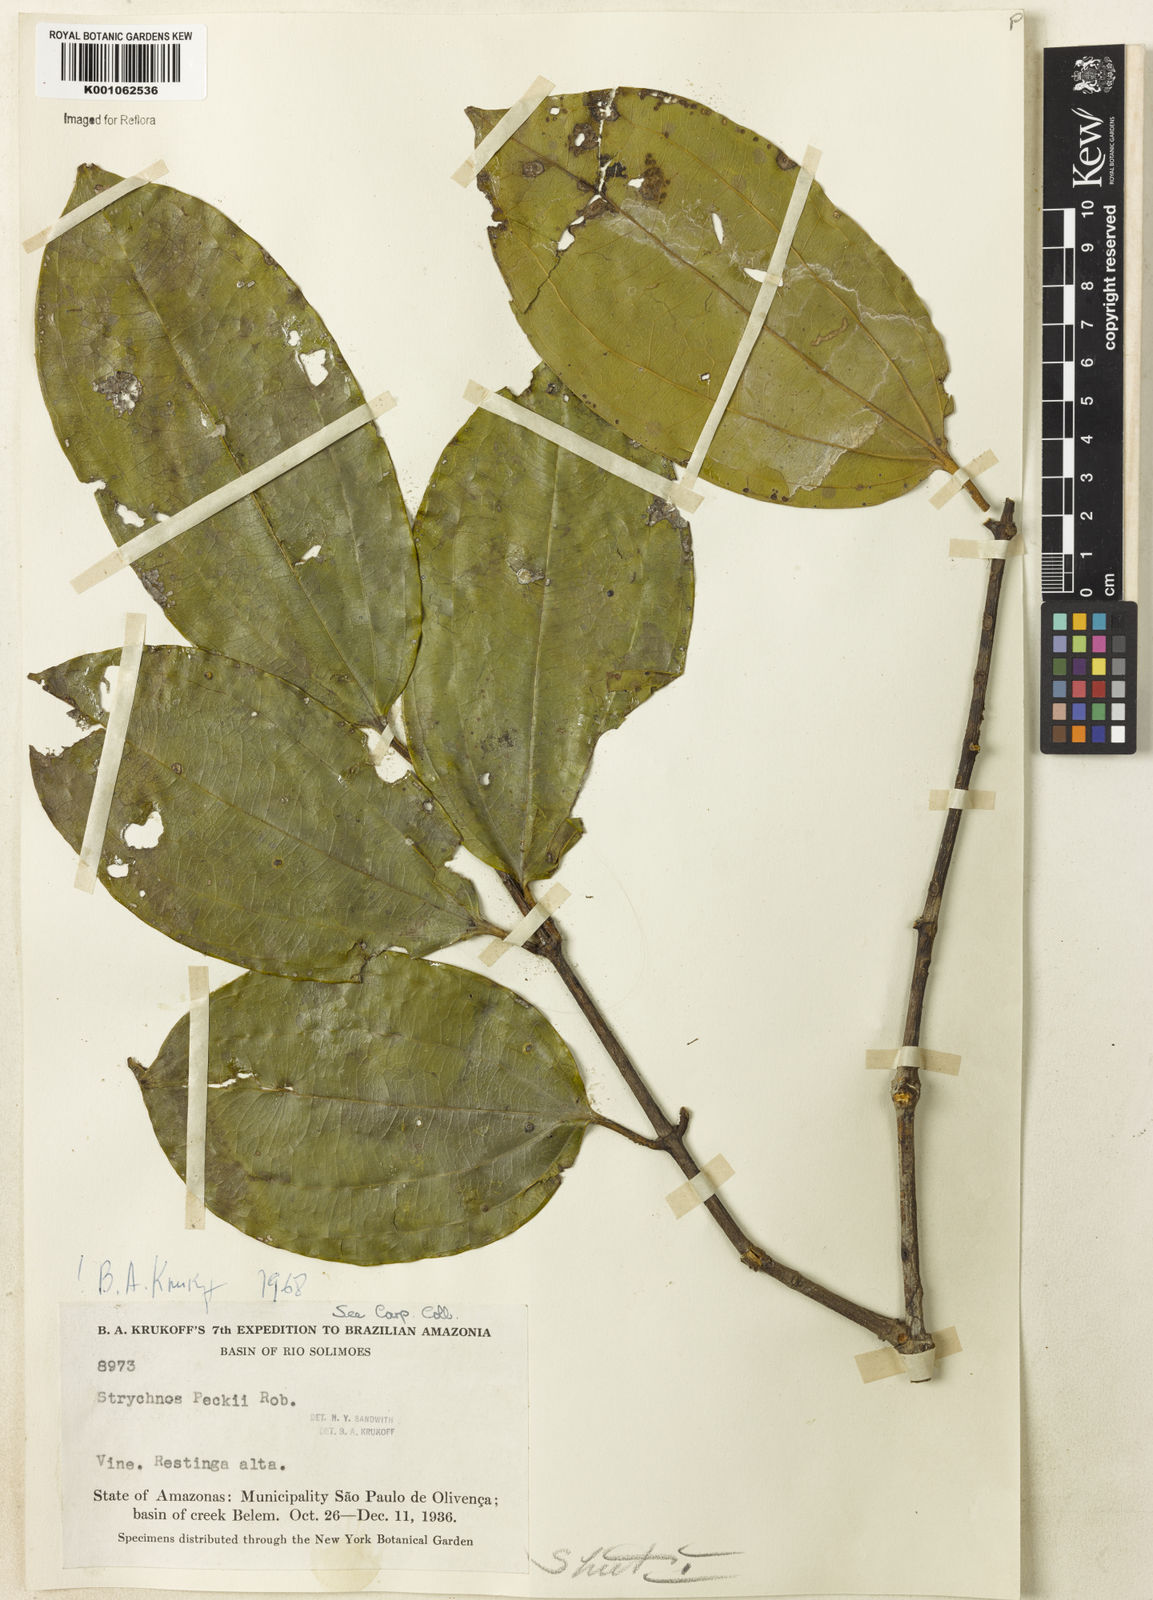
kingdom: Plantae
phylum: Tracheophyta
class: Magnoliopsida
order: Gentianales
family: Loganiaceae
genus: Strychnos
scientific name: Strychnos peckii
